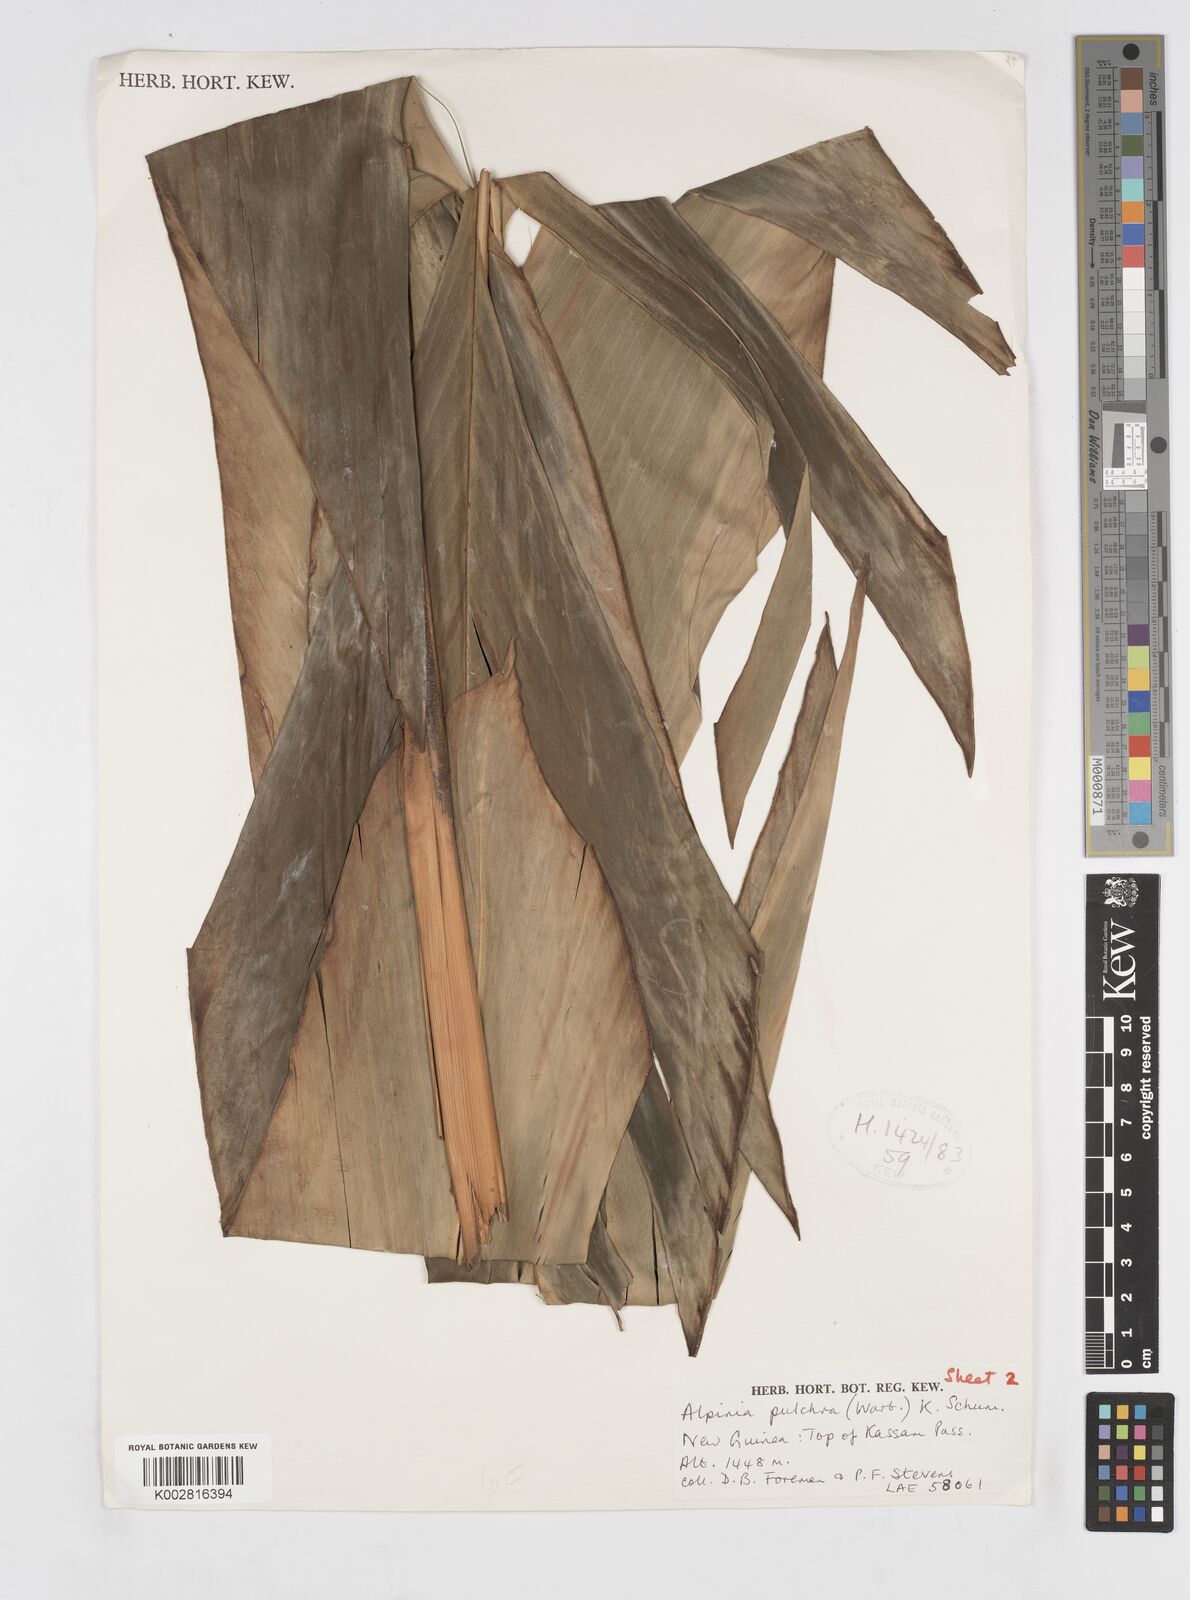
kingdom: Plantae
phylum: Tracheophyta
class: Liliopsida
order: Zingiberales
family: Zingiberaceae
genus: Alpinia
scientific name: Alpinia pulchra
